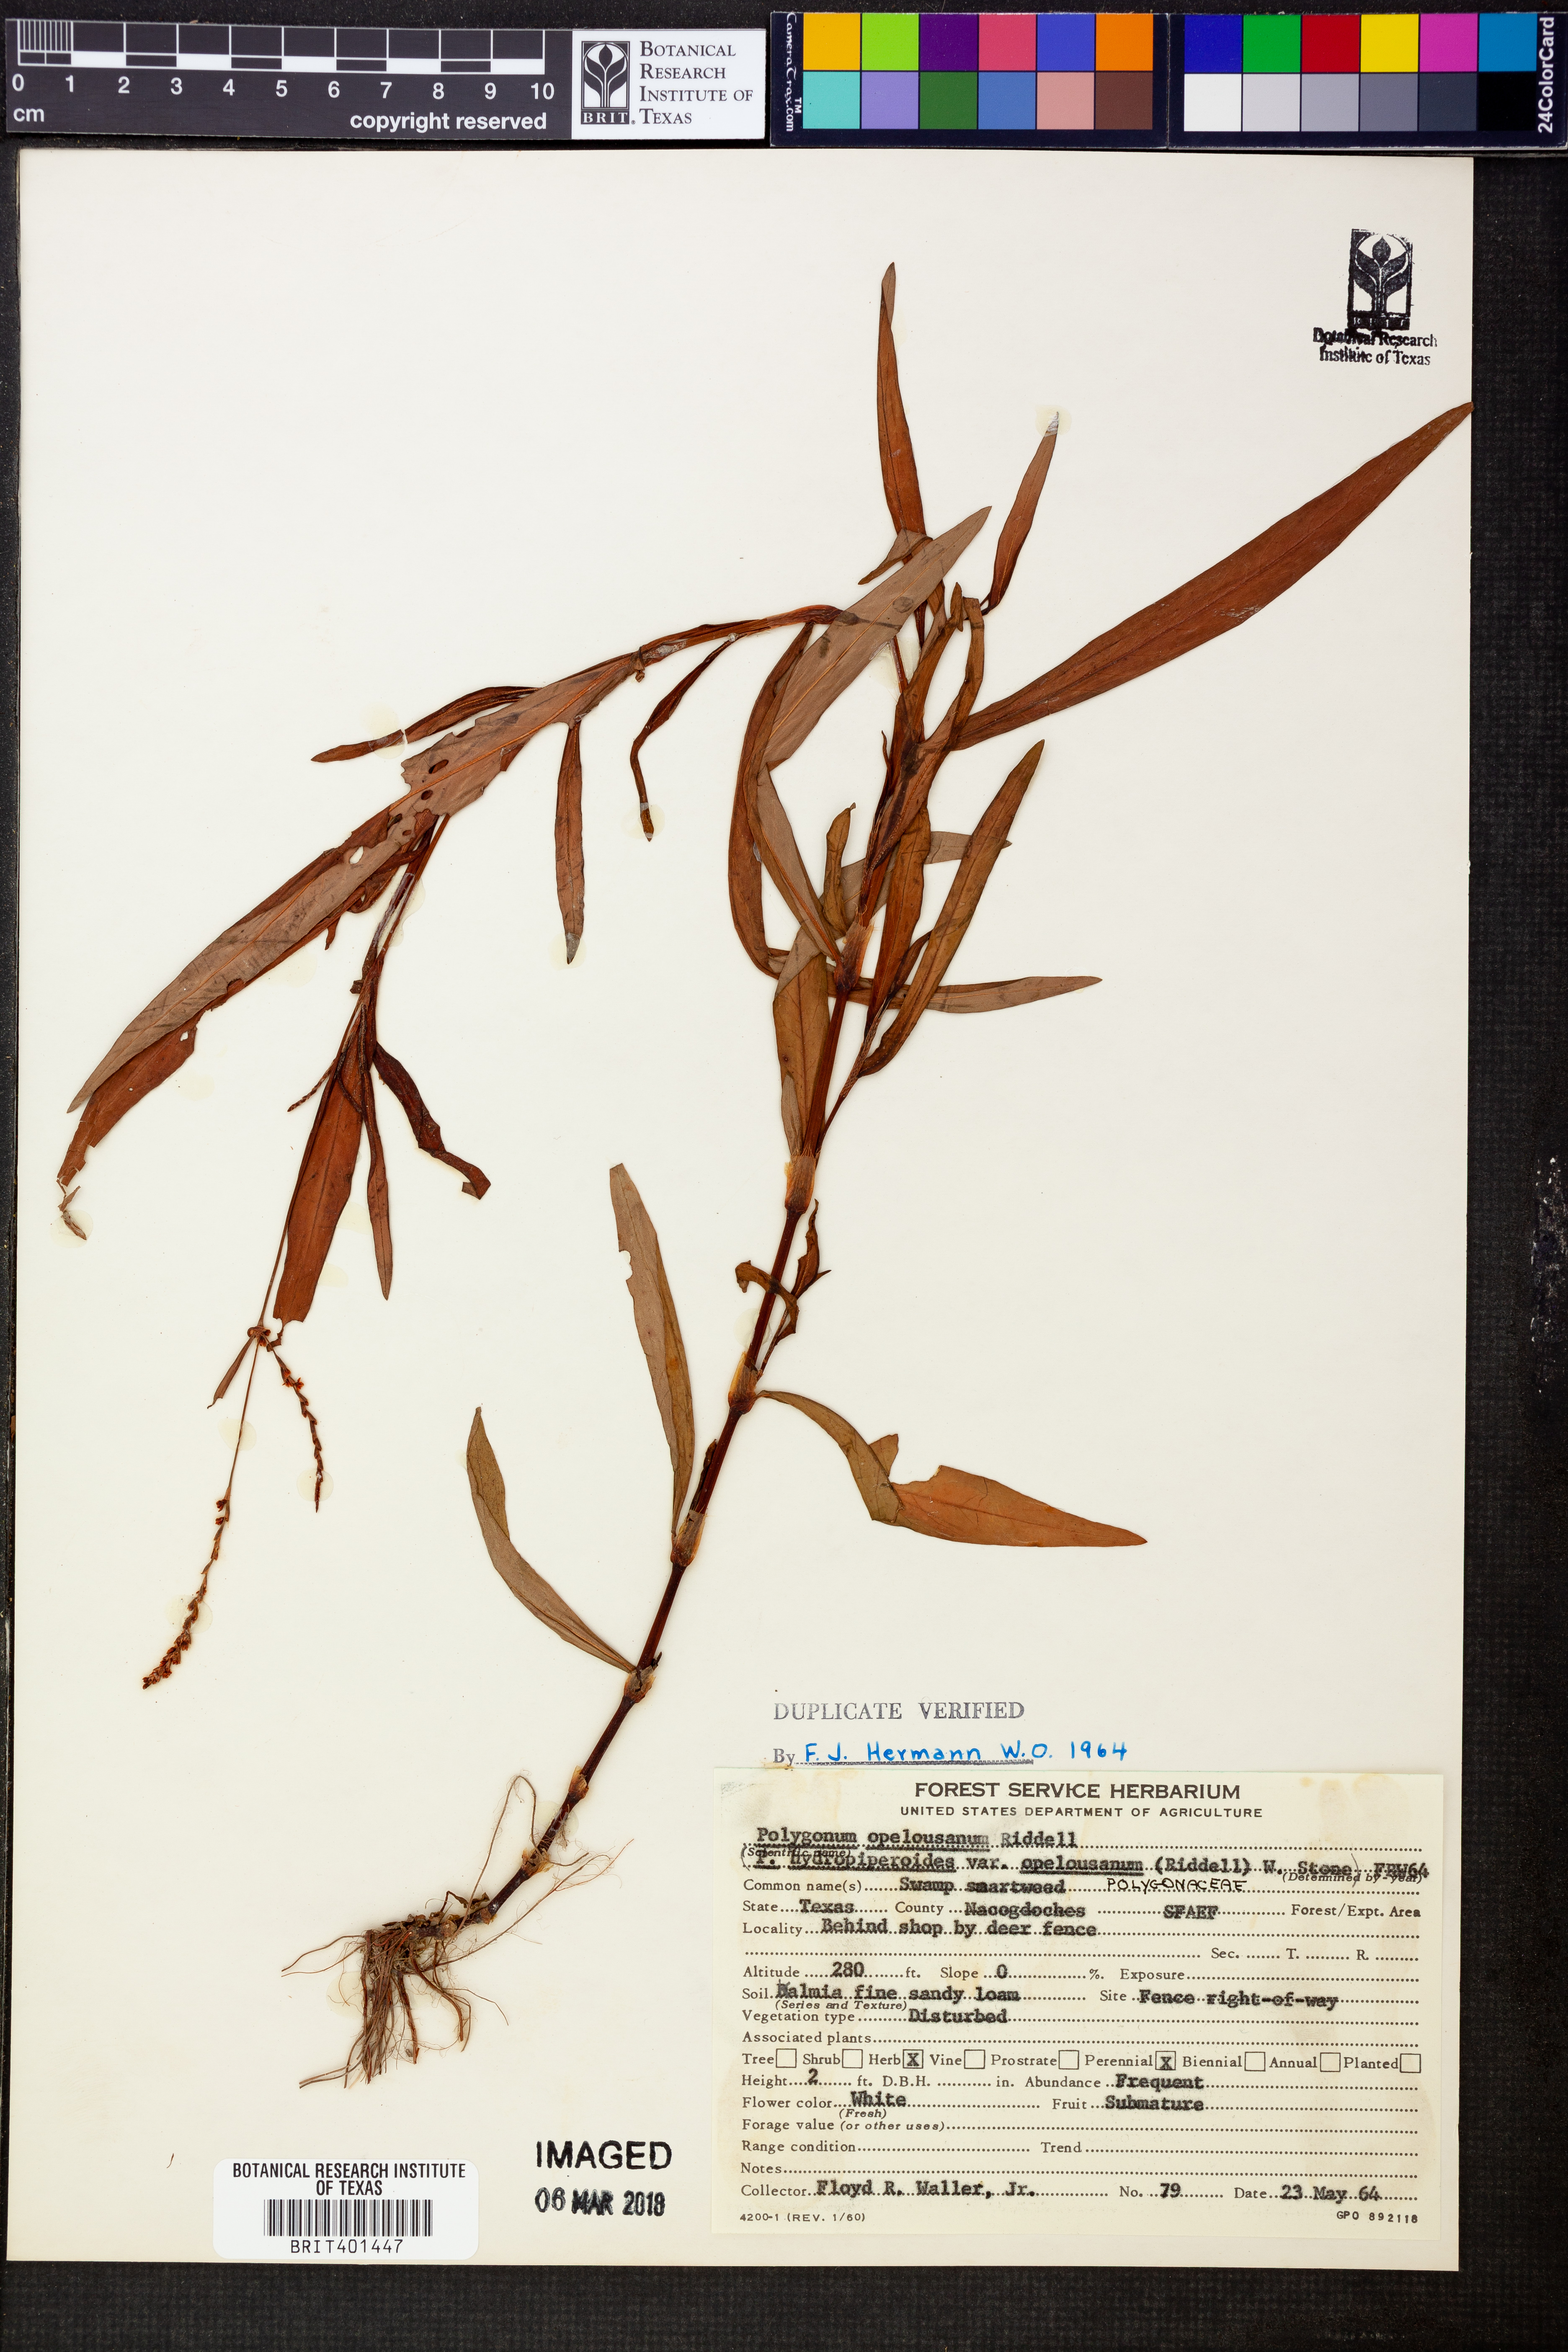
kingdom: Plantae
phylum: Tracheophyta
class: Magnoliopsida
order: Caryophyllales
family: Polygonaceae
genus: Persicaria
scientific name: Persicaria hydropiperoides
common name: Swamp smartweed
